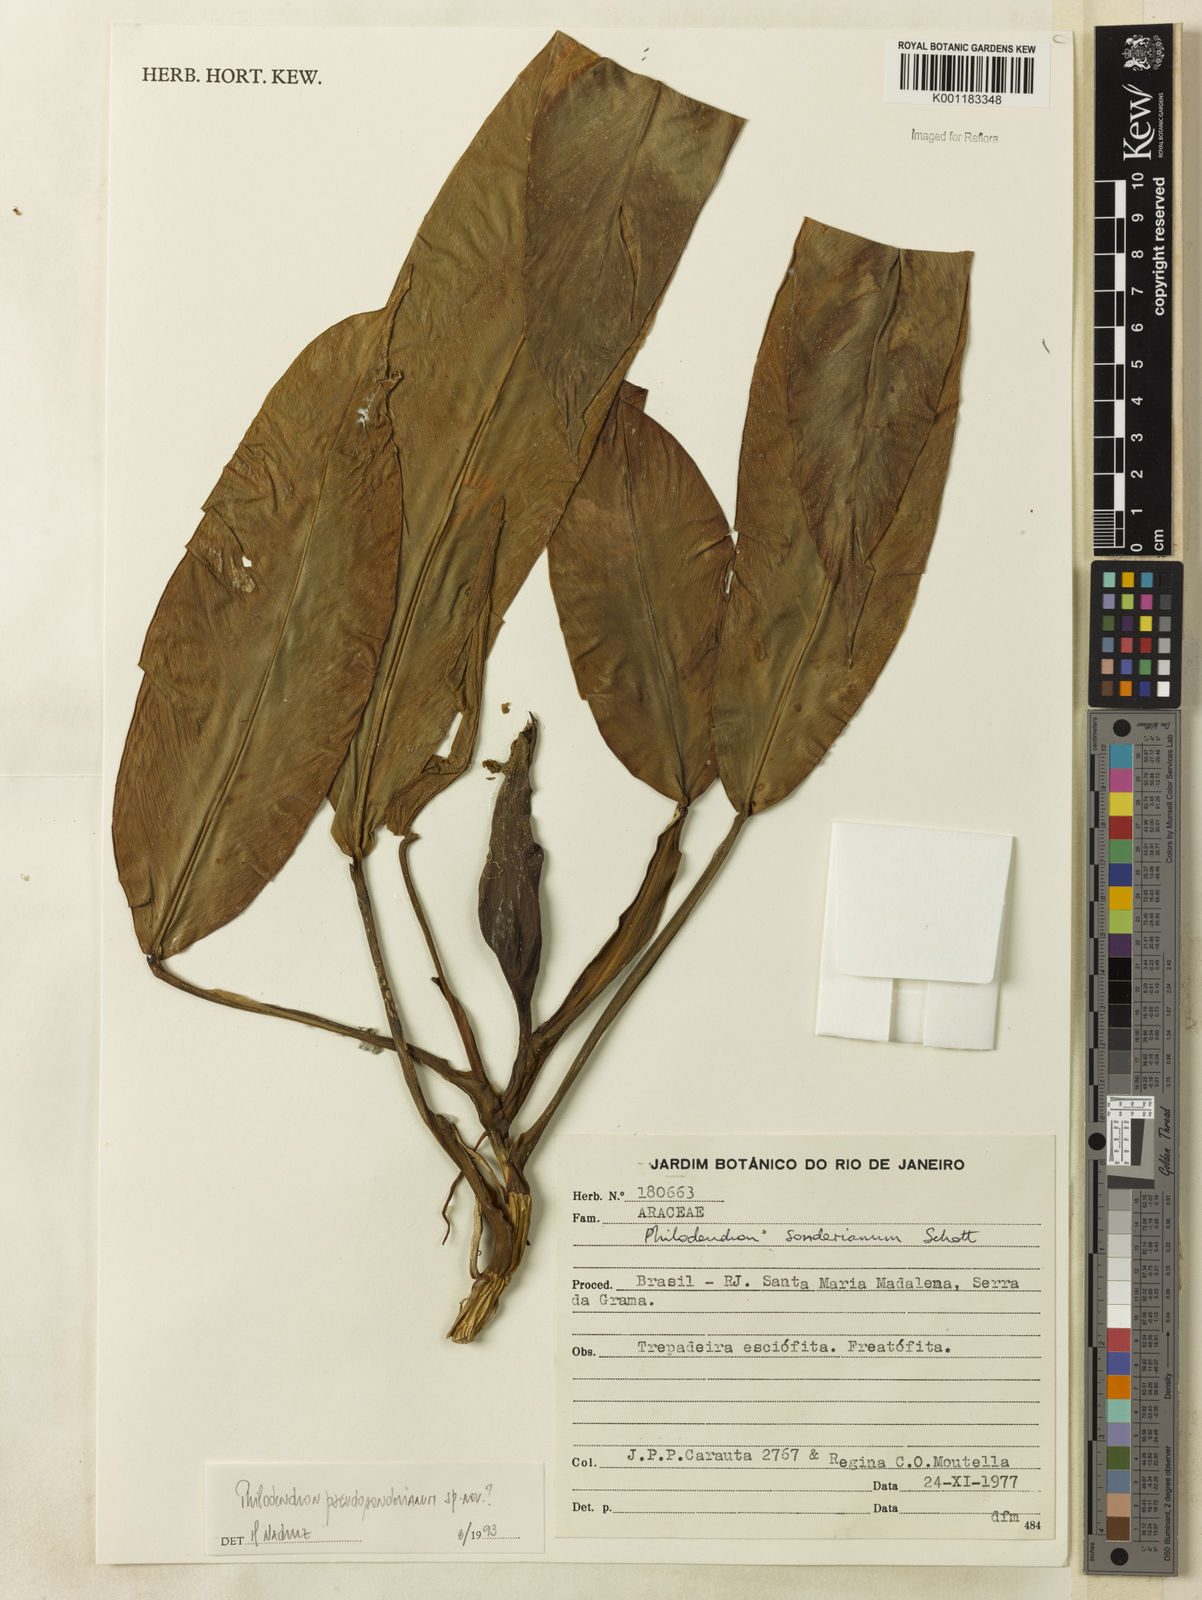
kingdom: Plantae
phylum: Tracheophyta
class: Liliopsida
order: Alismatales
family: Araceae
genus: Philodendron
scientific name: Philodendron
